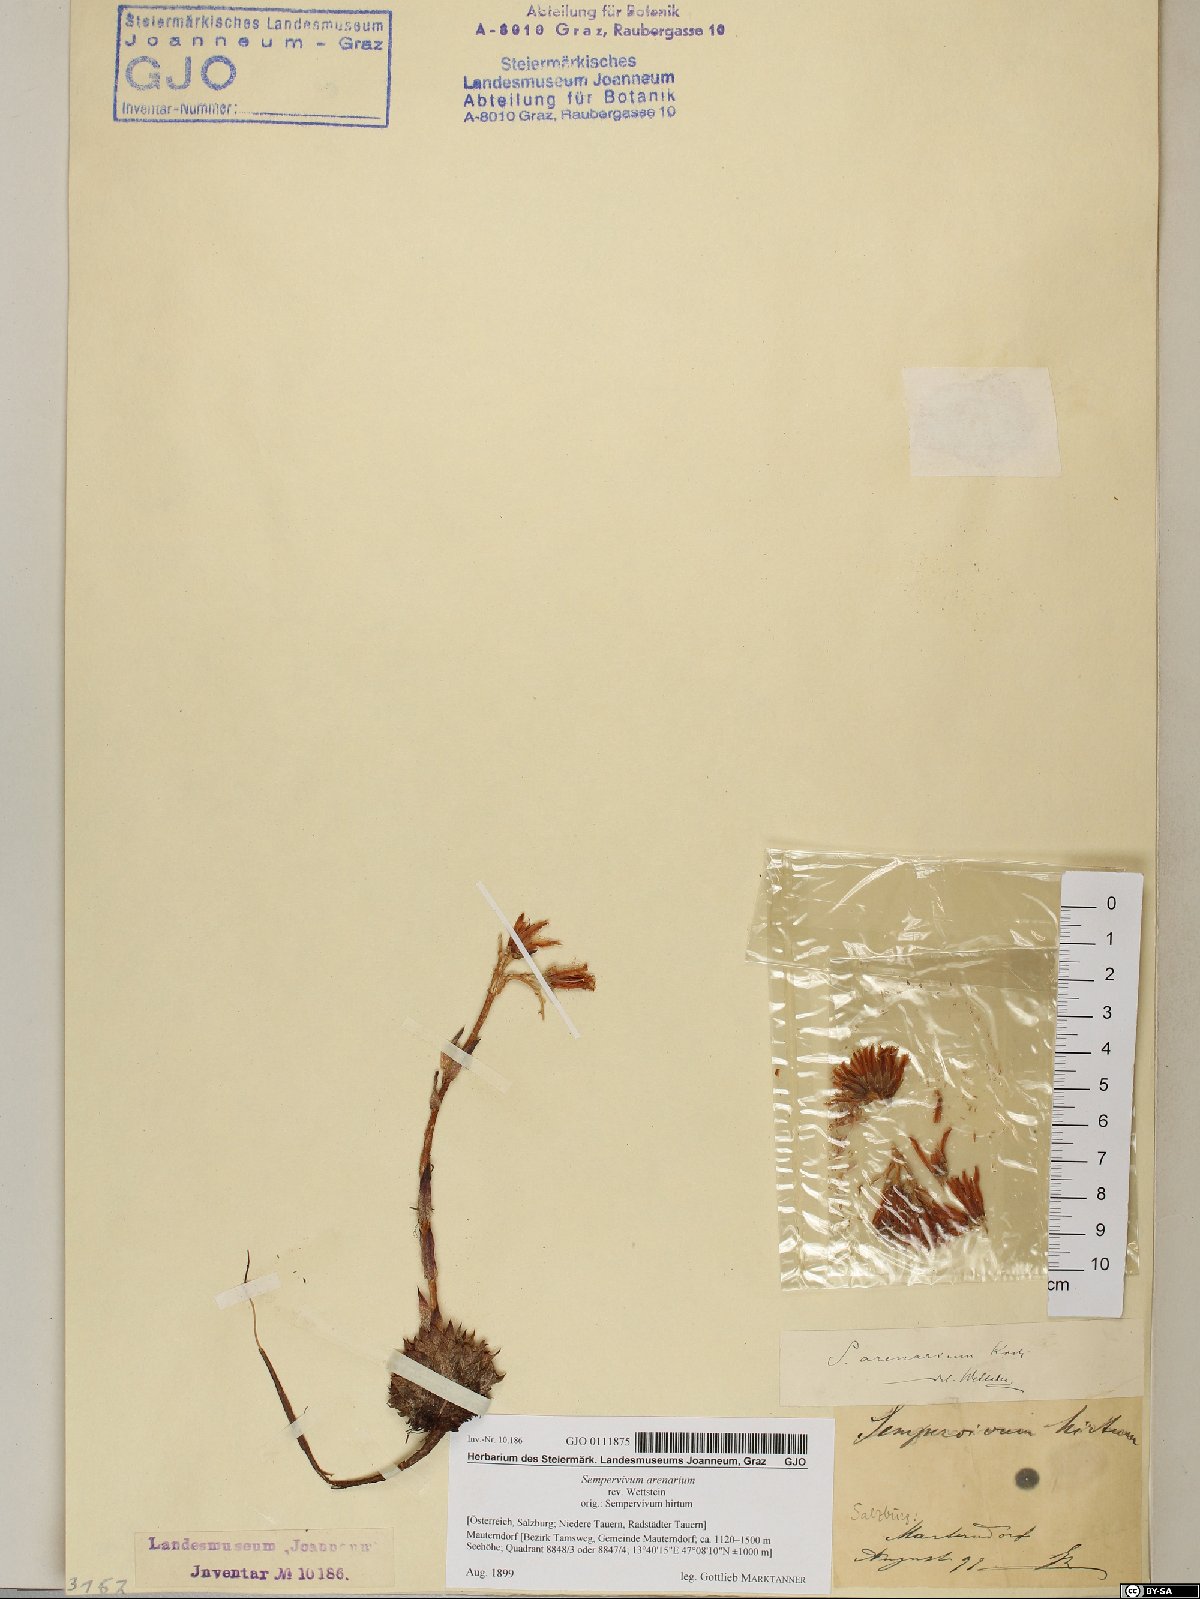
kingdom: Plantae
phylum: Tracheophyta
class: Magnoliopsida
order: Saxifragales
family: Crassulaceae
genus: Sempervivum
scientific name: Sempervivum globiferum
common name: Rolling hen-and-chicks
